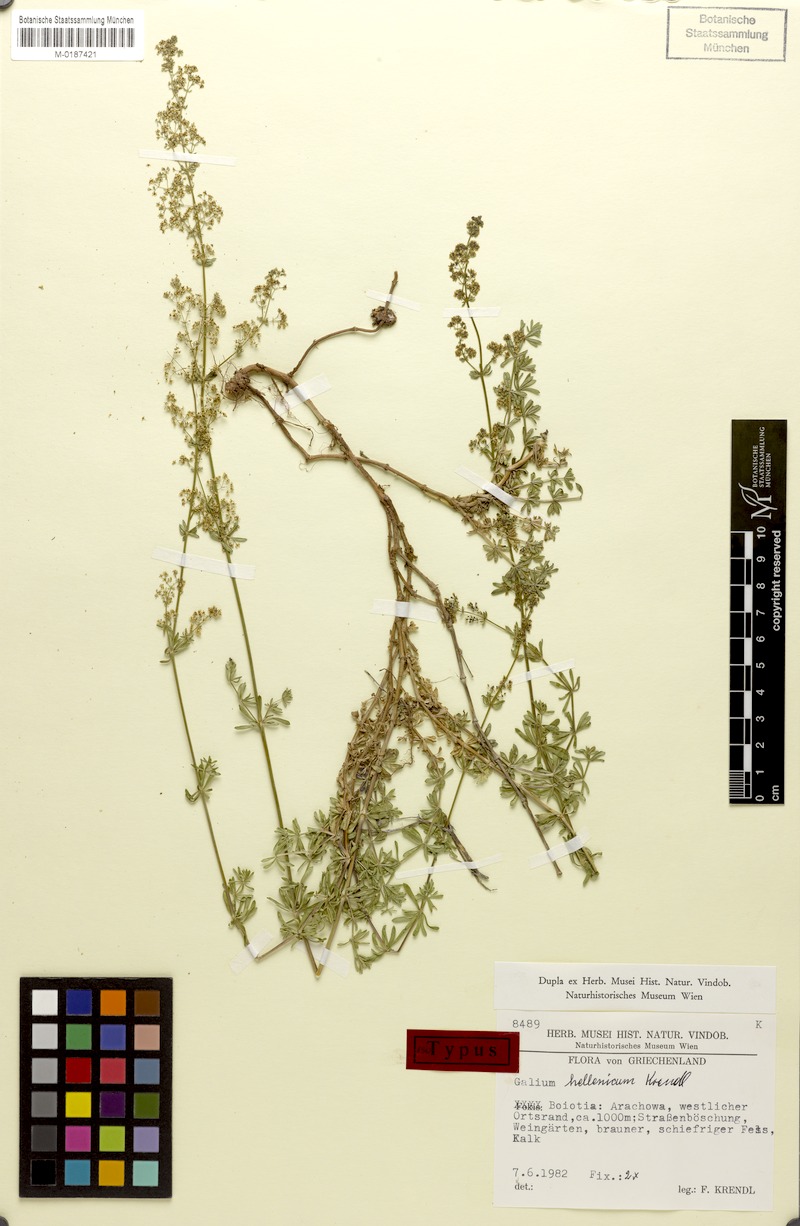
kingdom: Plantae
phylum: Tracheophyta
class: Magnoliopsida
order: Gentianales
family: Rubiaceae
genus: Galium
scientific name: Galium hellenicum
